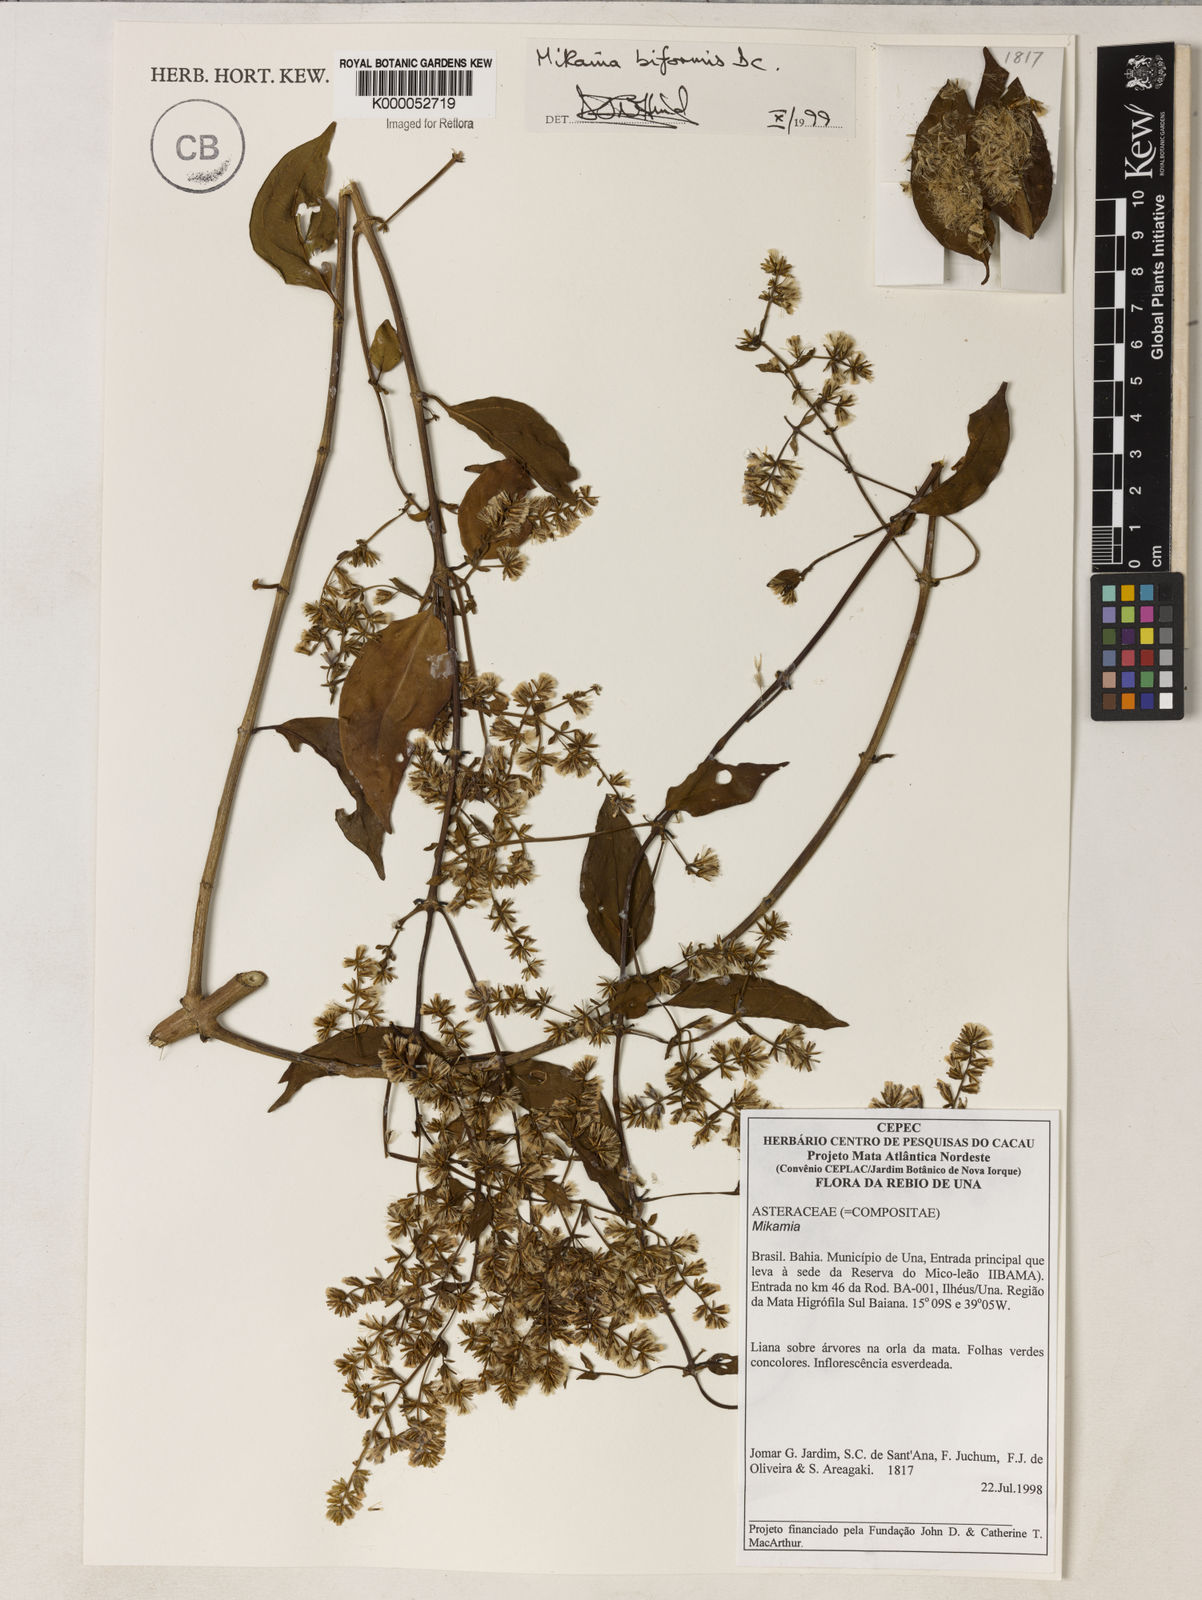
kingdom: Plantae
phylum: Tracheophyta
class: Magnoliopsida
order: Asterales
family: Asteraceae
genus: Mikania
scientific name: Mikania biformis
